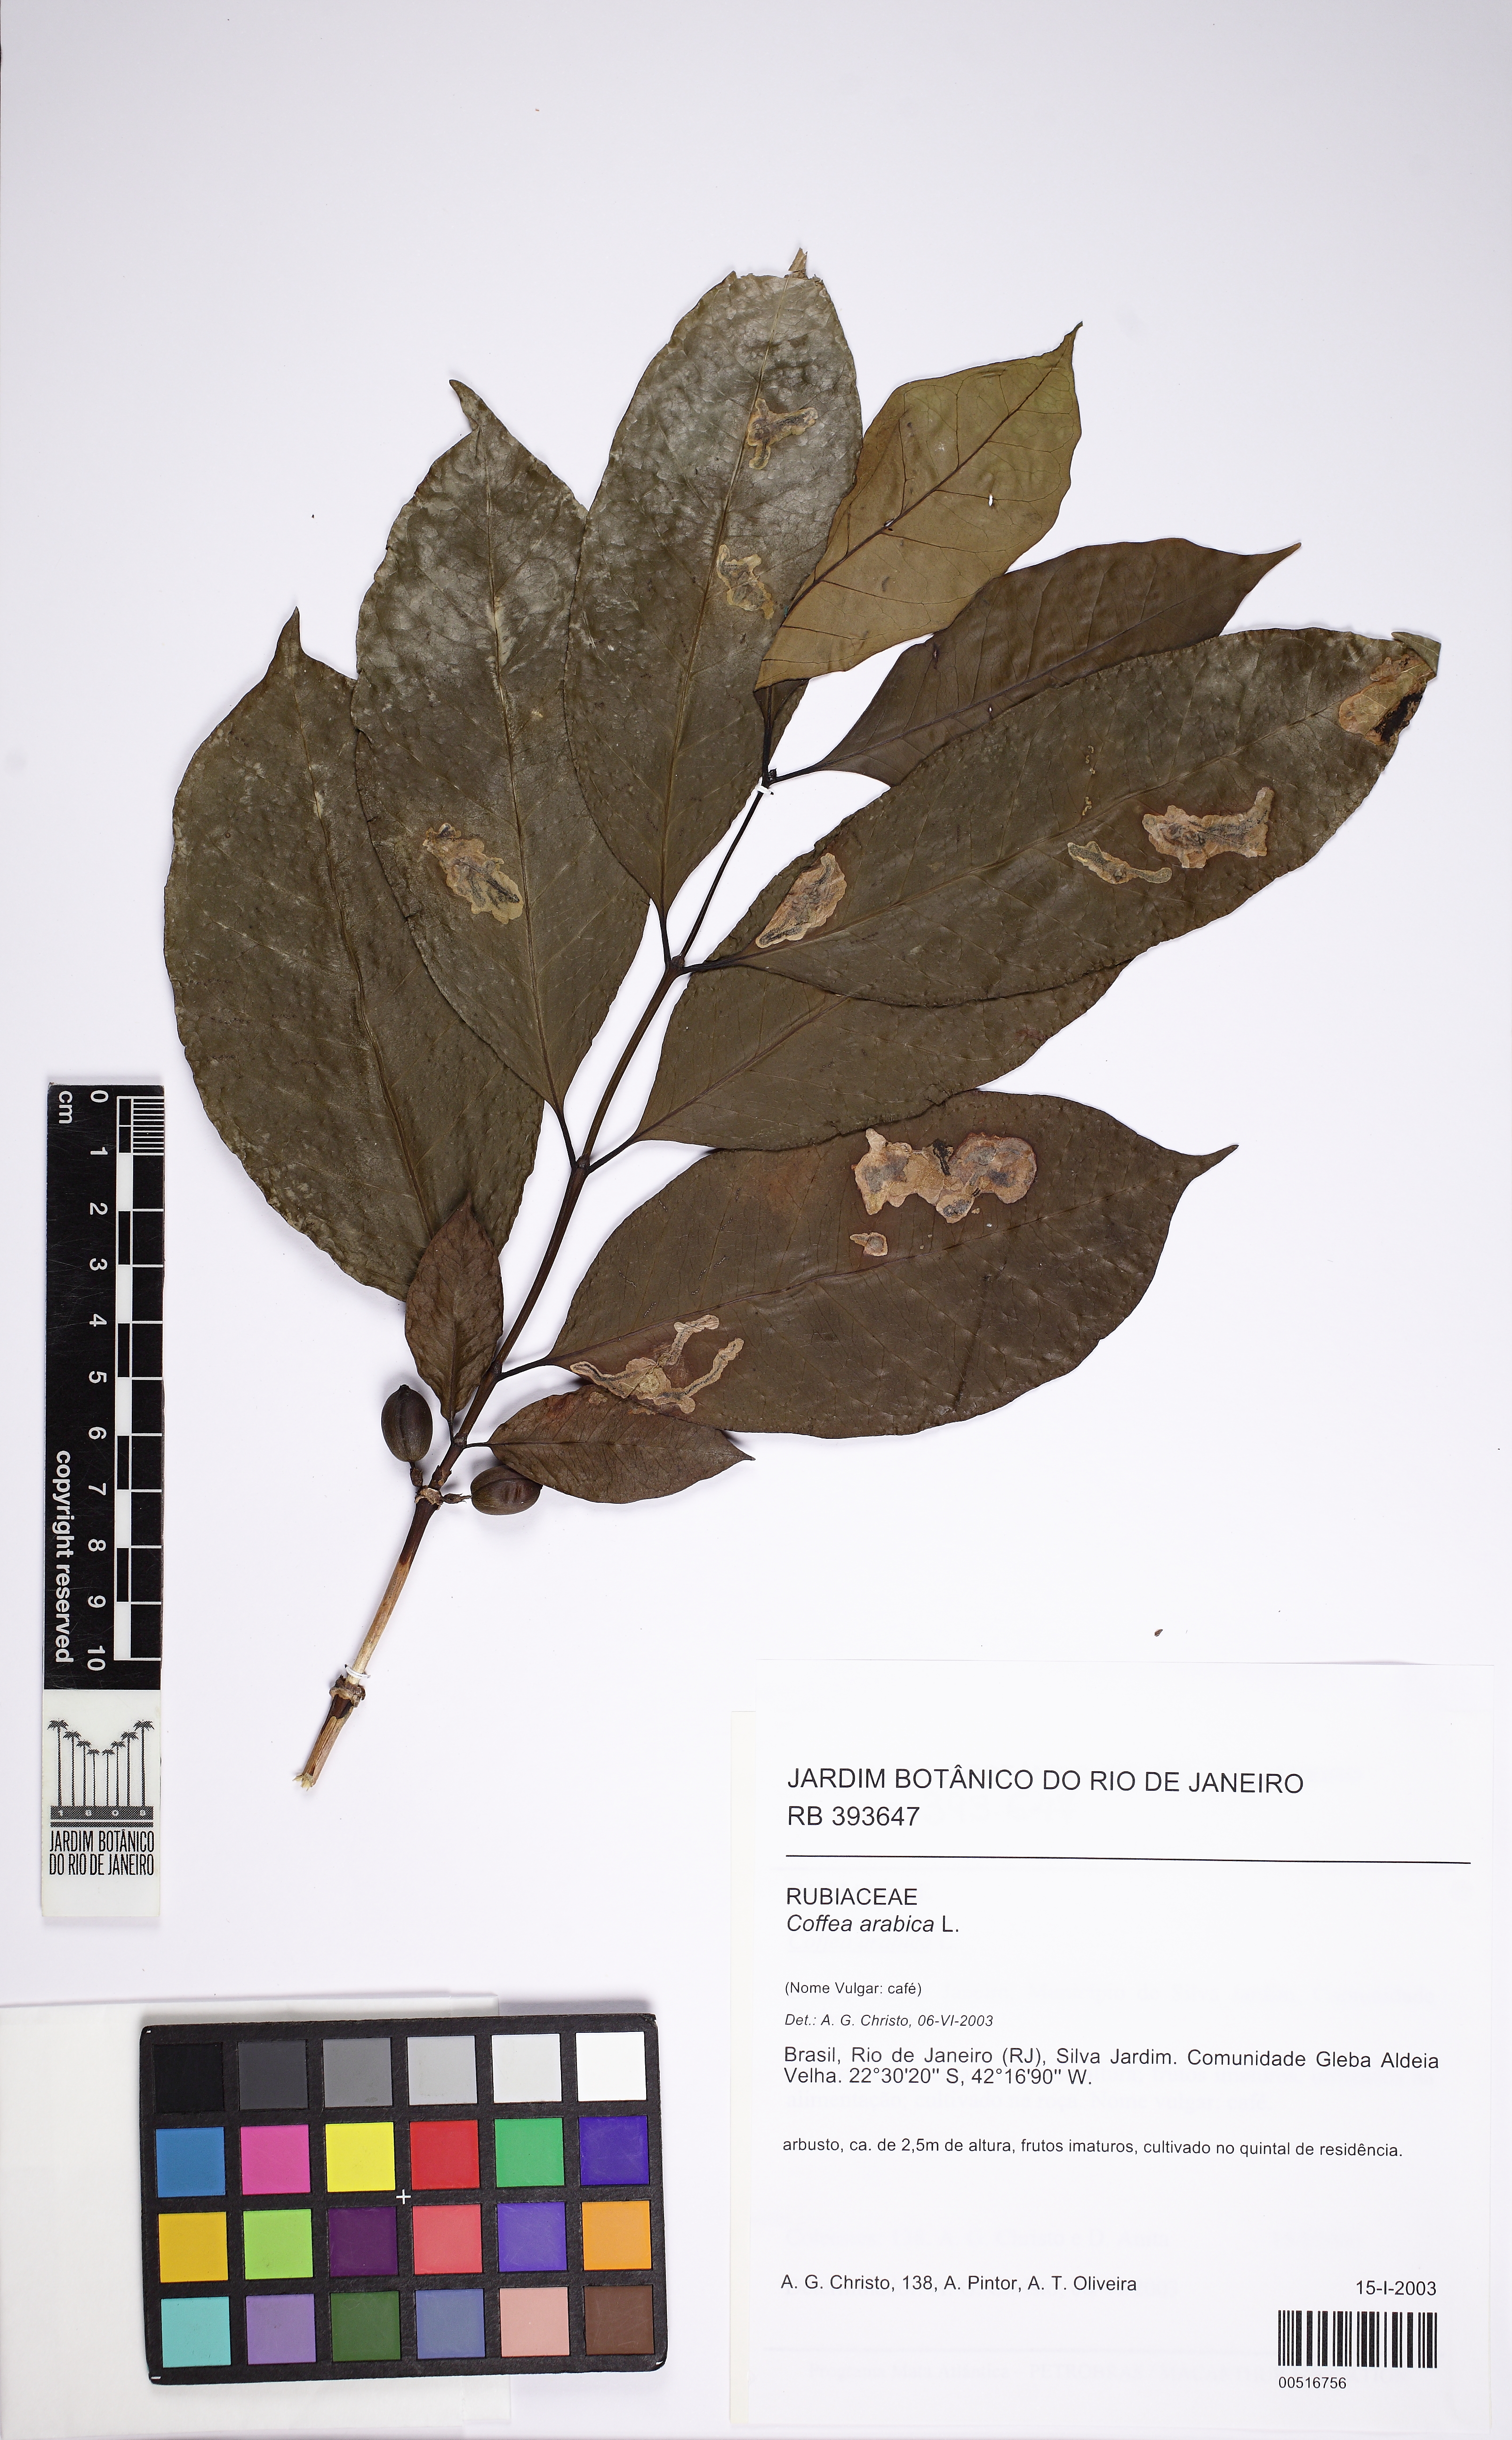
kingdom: Plantae
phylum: Tracheophyta
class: Magnoliopsida
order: Gentianales
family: Rubiaceae
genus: Coffea
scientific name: Coffea arabica
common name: Coffee
